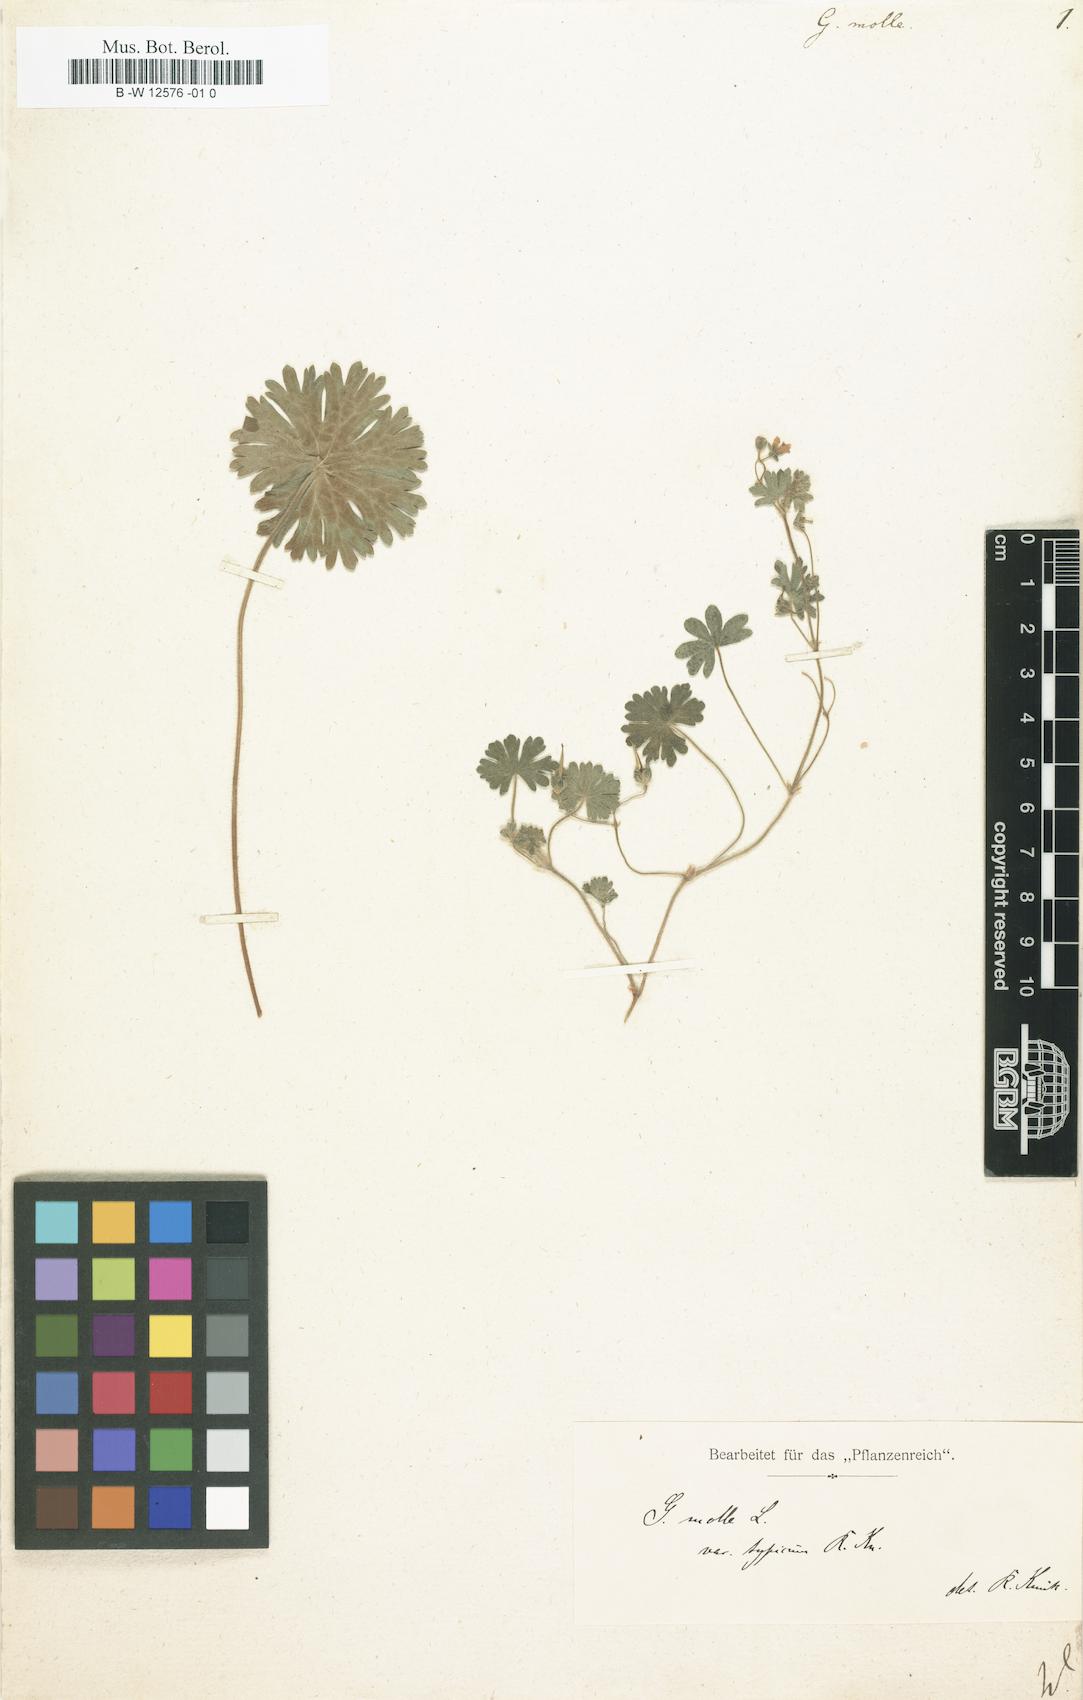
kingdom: Plantae
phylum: Tracheophyta
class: Magnoliopsida
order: Geraniales
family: Geraniaceae
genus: Geranium
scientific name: Geranium molle
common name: Dove's-foot crane's-bill
